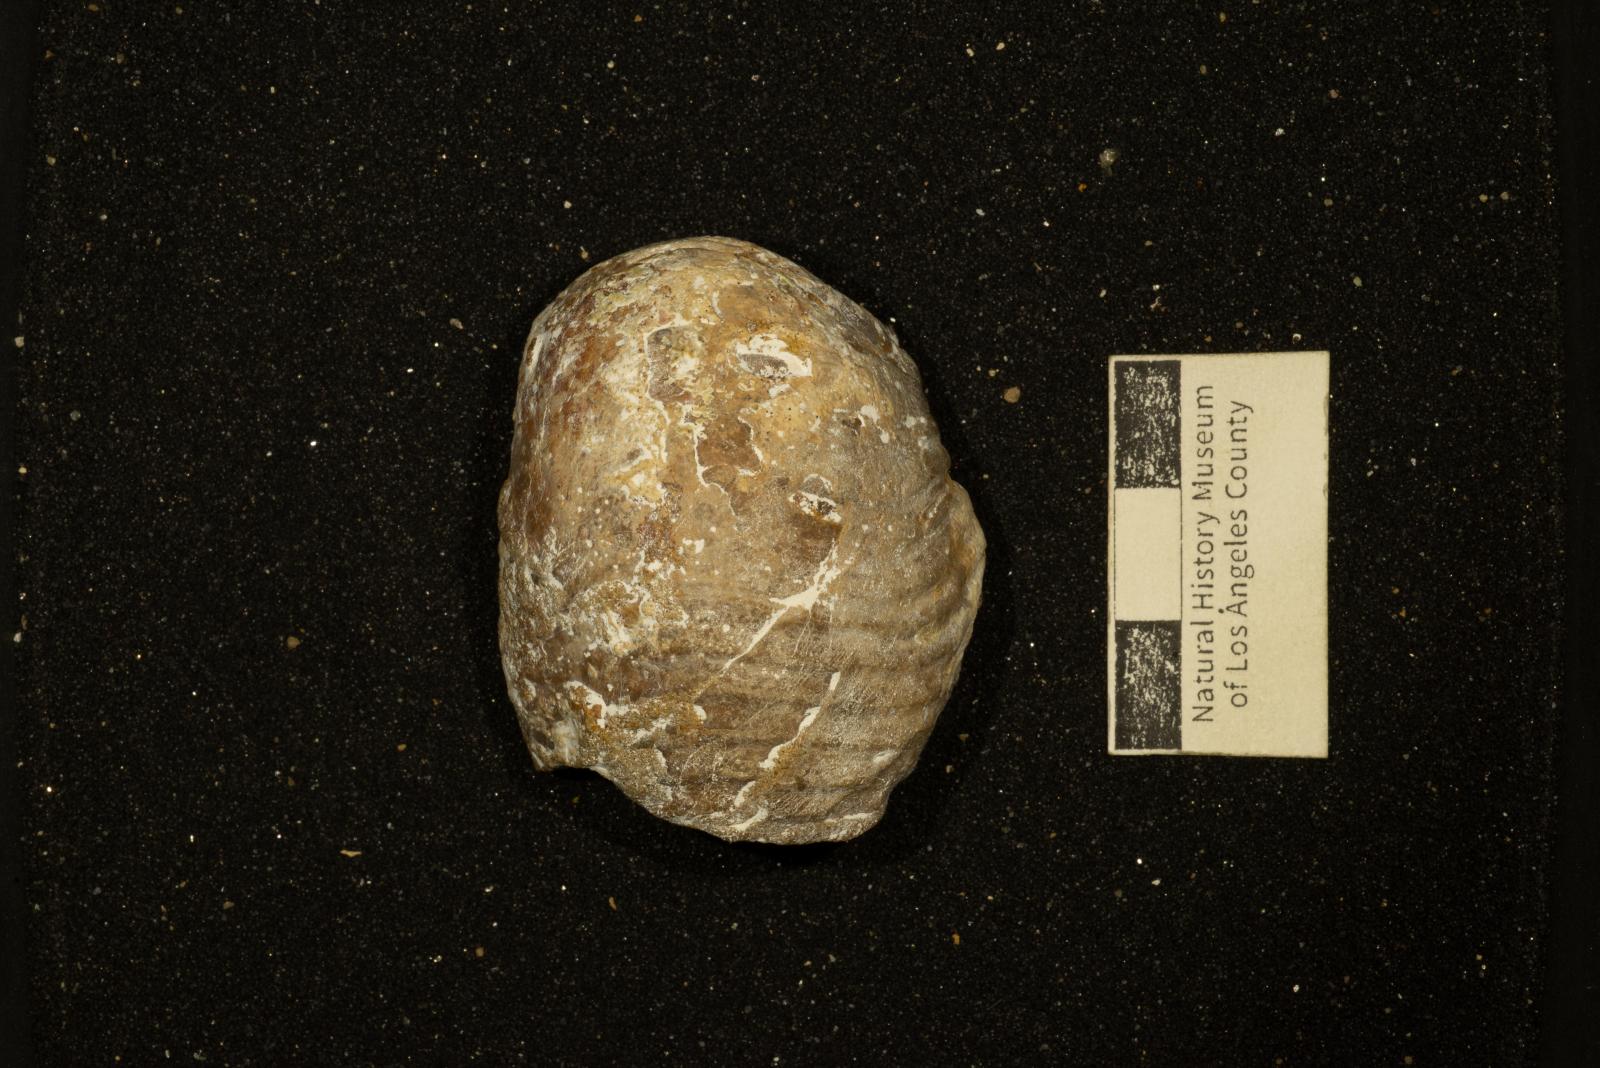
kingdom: Animalia
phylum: Mollusca
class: Cephalopoda
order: Nautilida
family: Cymatoceratidae
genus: Cymatoceras
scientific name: Cymatoceras
